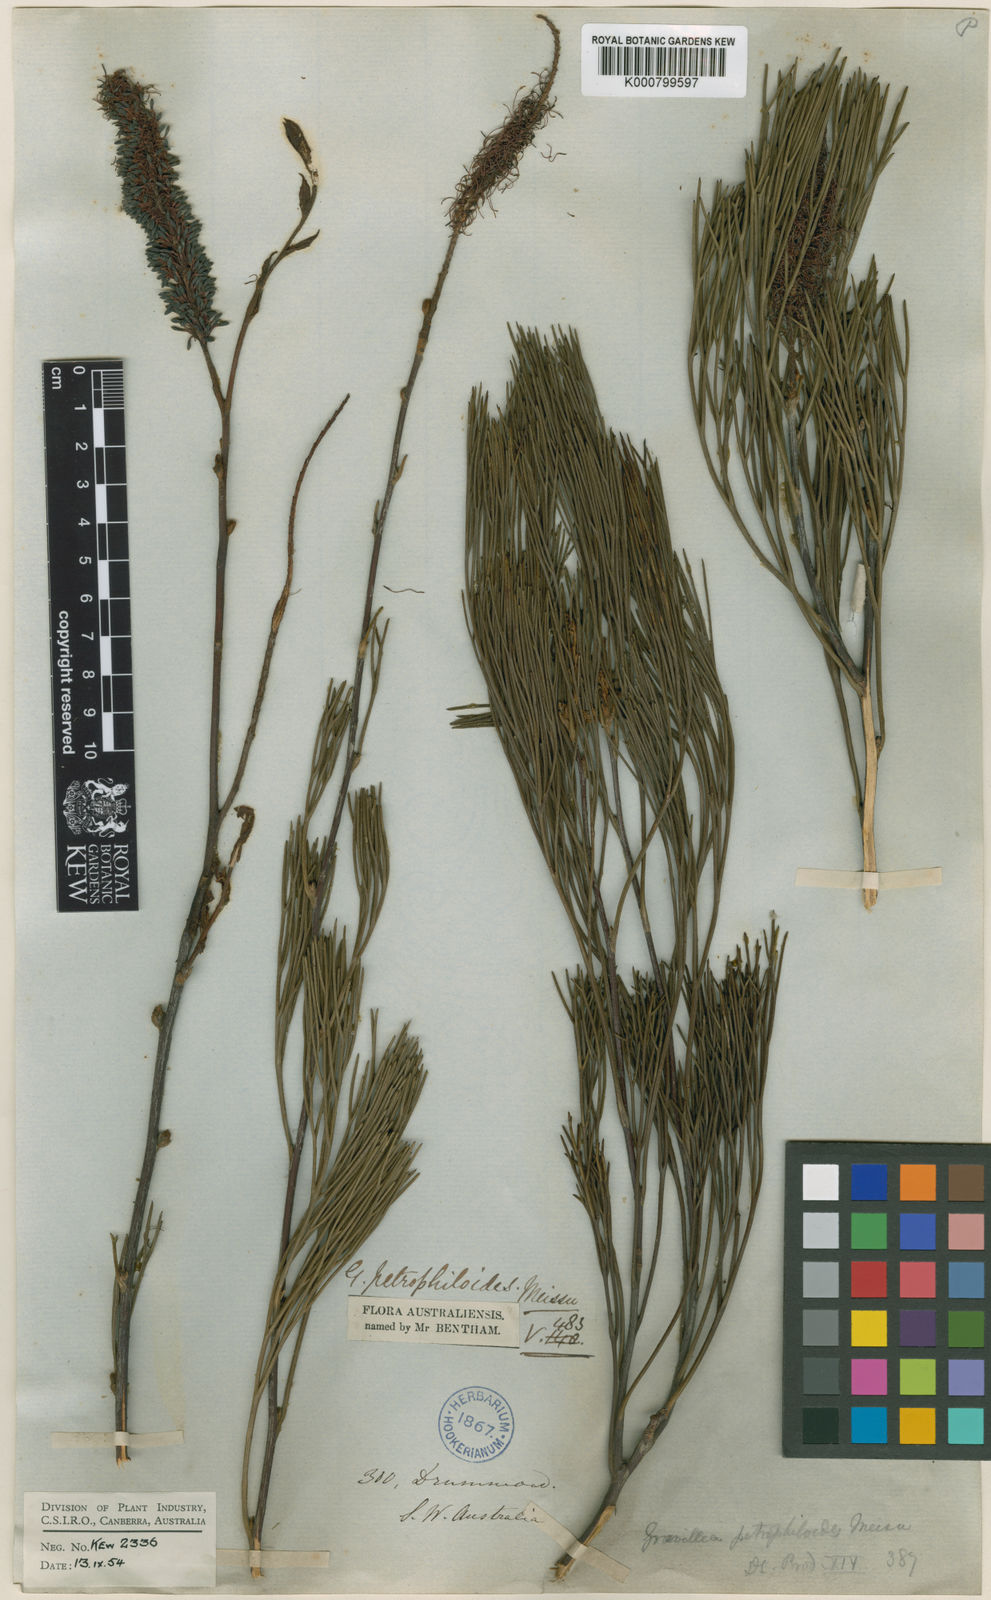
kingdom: Plantae
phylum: Tracheophyta
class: Magnoliopsida
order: Proteales
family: Proteaceae
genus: Grevillea
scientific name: Grevillea petrophiloides
